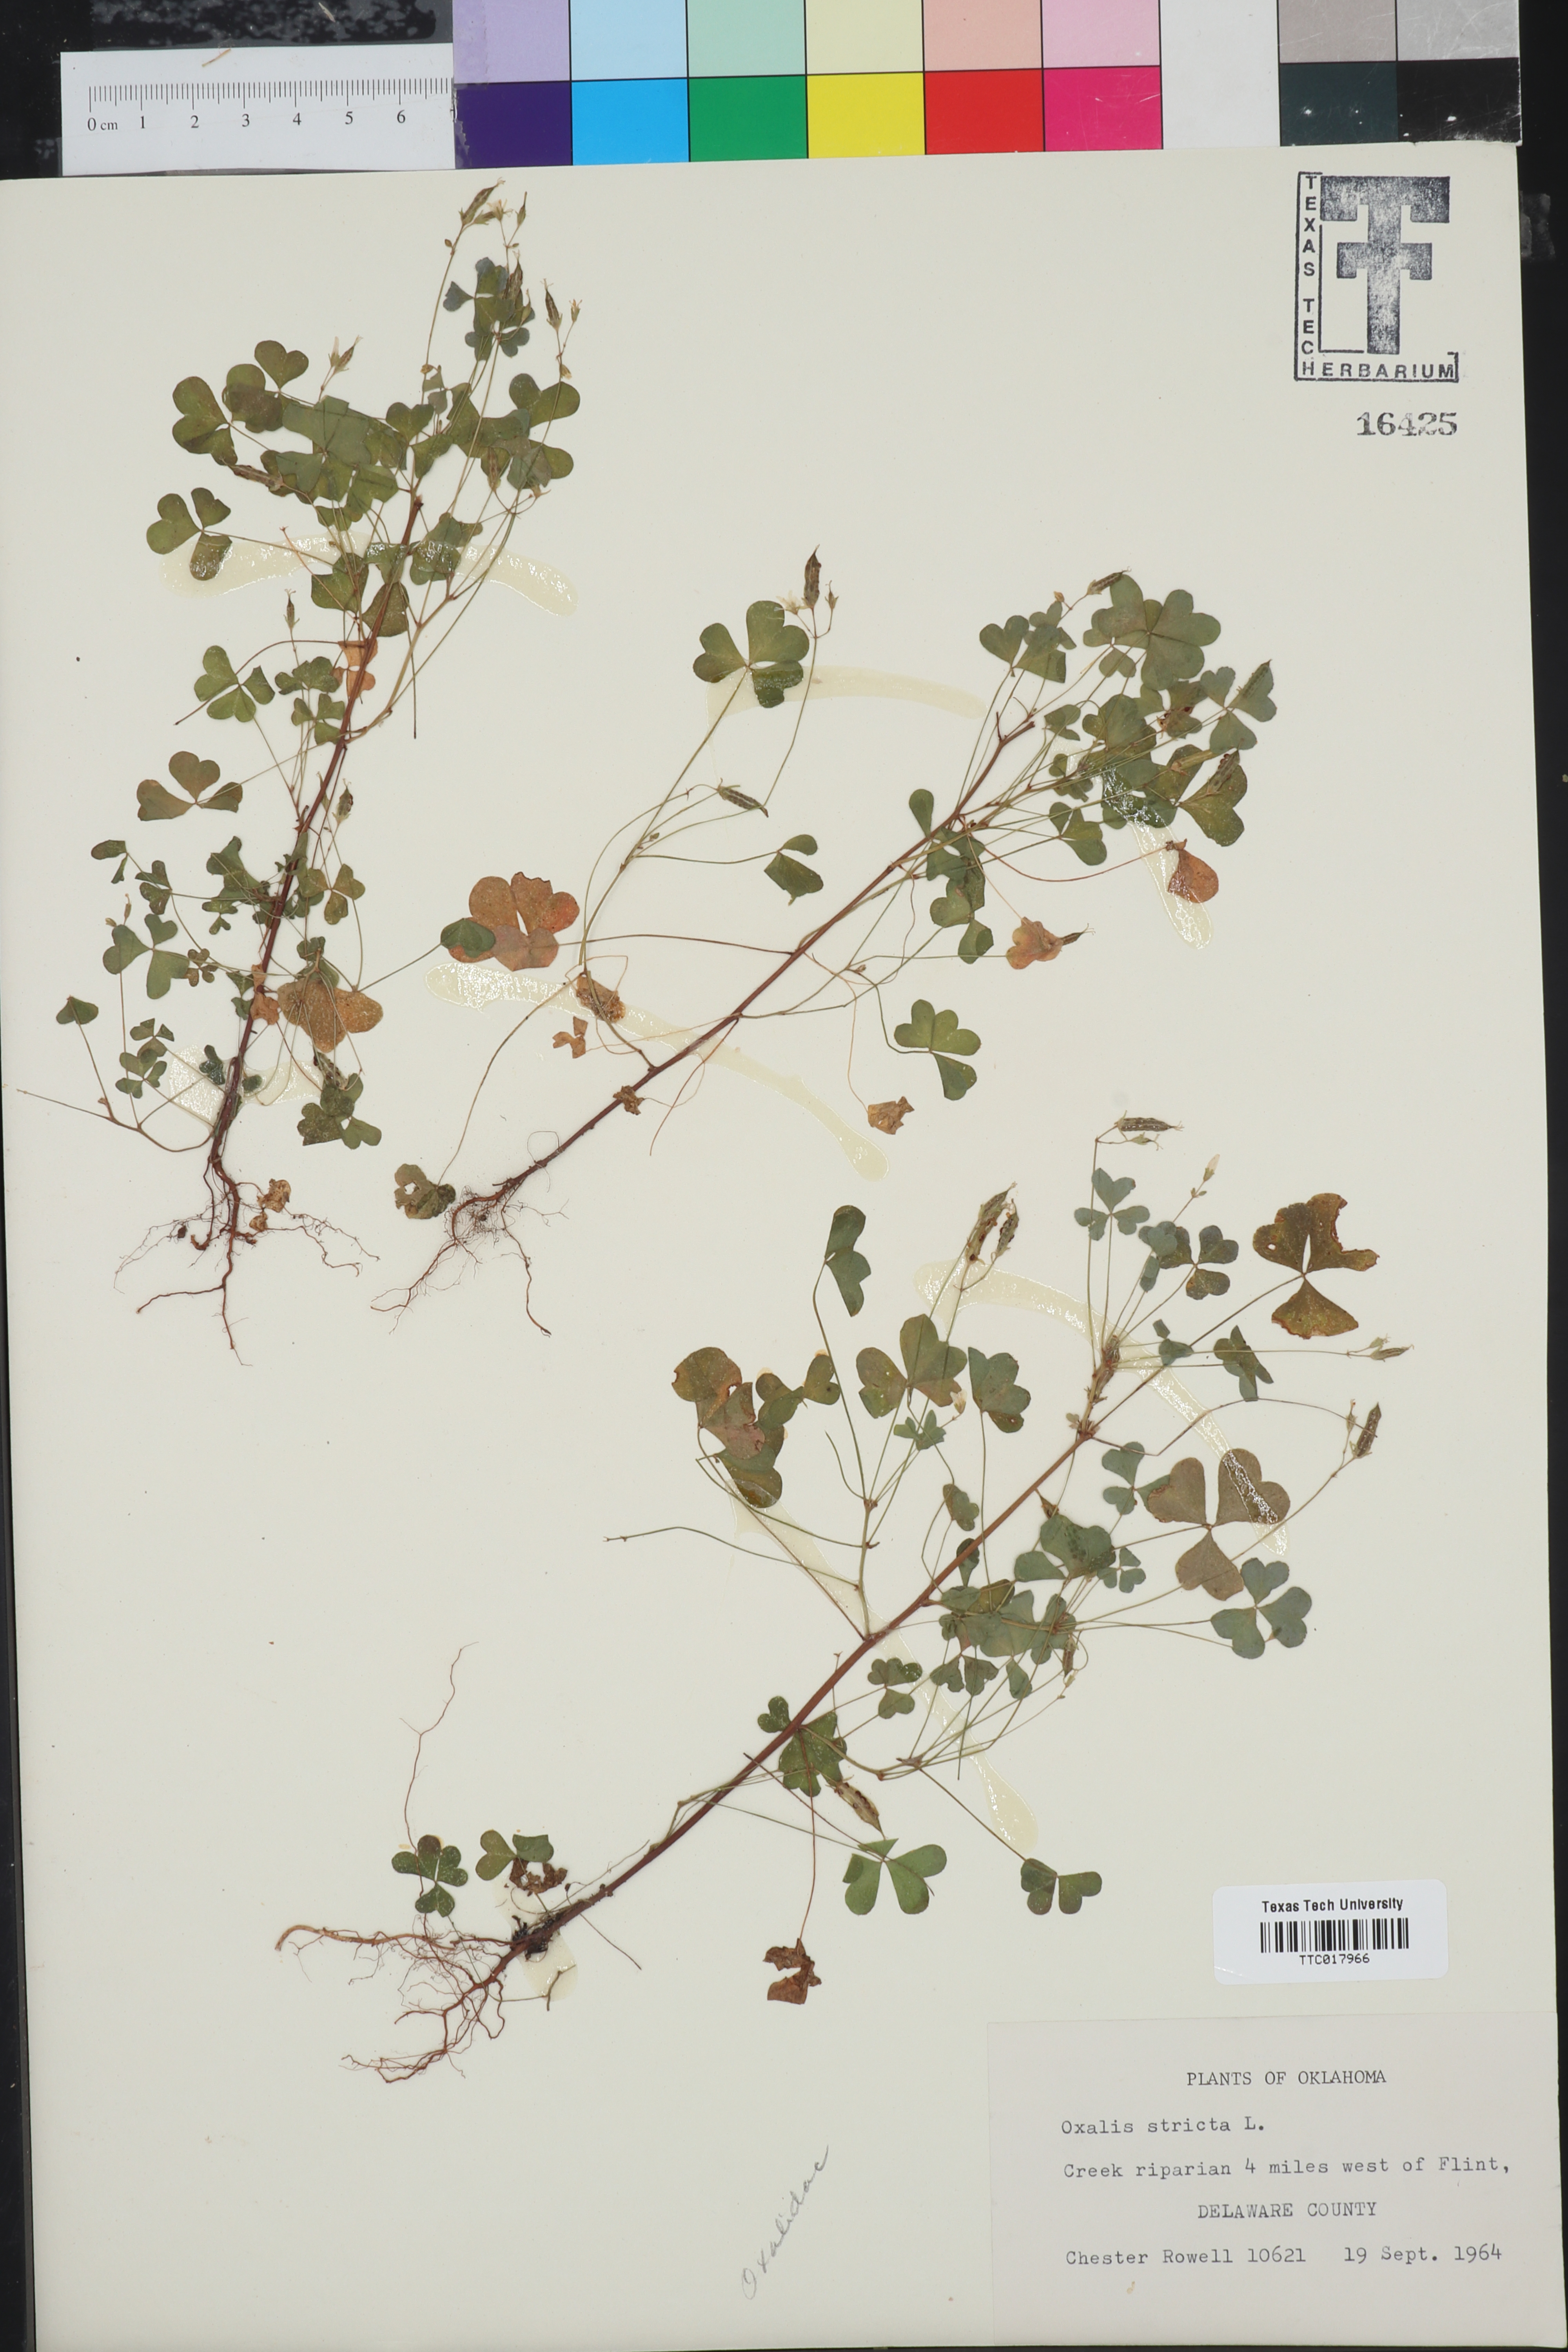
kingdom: Plantae
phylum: Tracheophyta
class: Magnoliopsida
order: Oxalidales
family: Oxalidaceae
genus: Oxalis
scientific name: Oxalis stricta
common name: Upright yellow-sorrel
